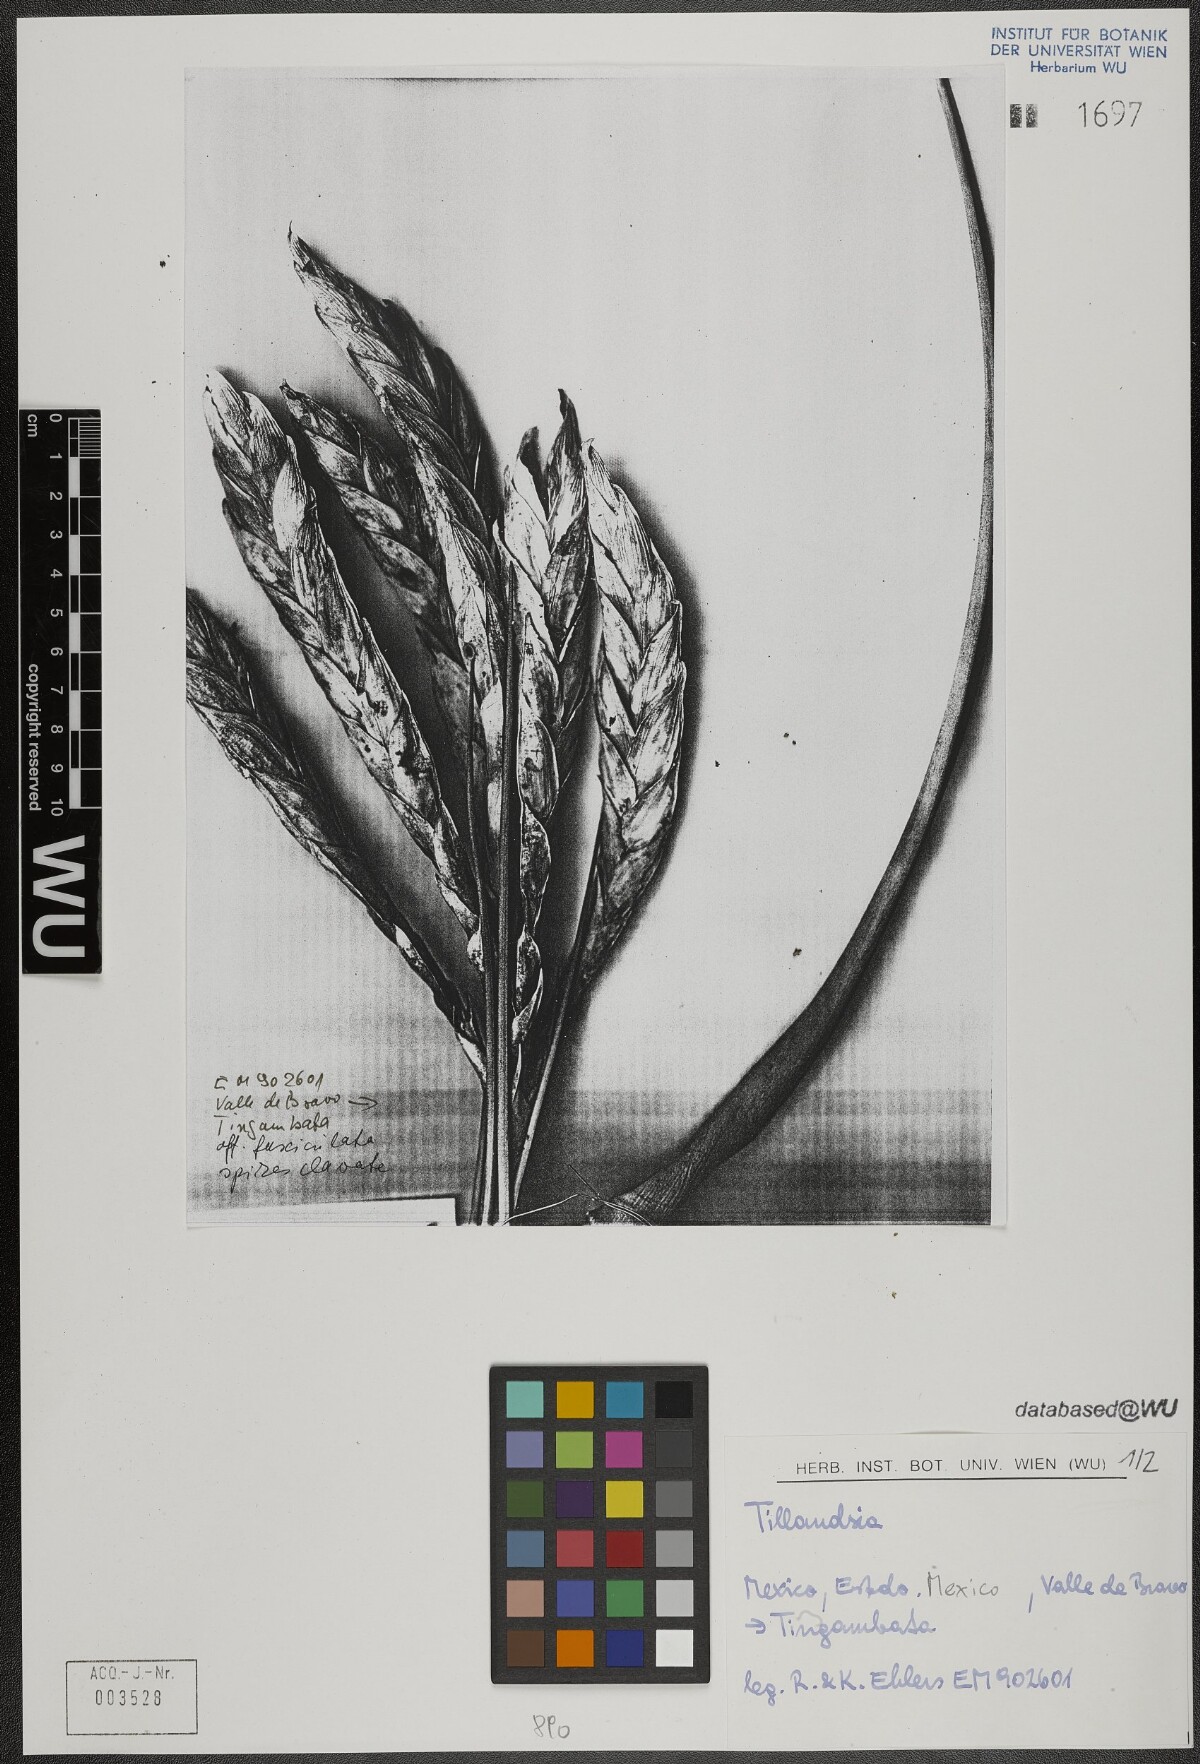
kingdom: Plantae
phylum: Tracheophyta
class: Liliopsida
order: Poales
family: Bromeliaceae
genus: Tillandsia
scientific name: Tillandsia fasciculata
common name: Giant airplant
